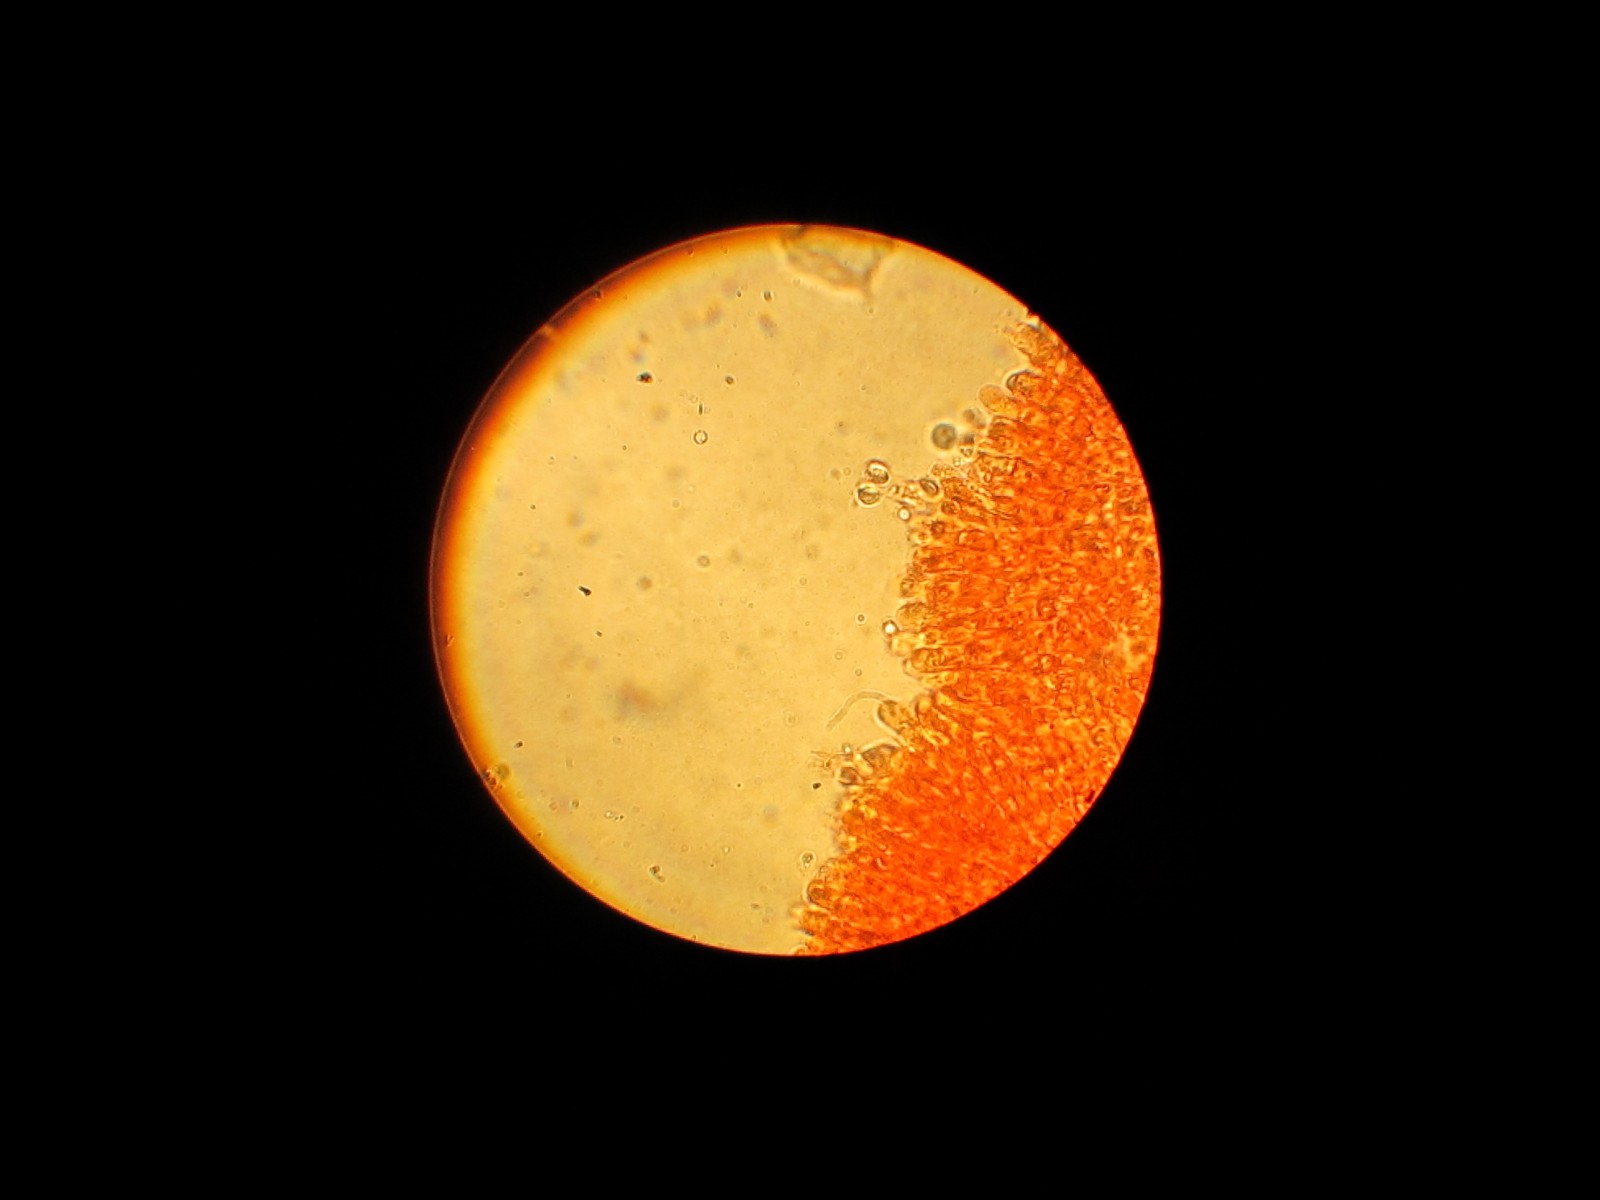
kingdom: Fungi
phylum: Basidiomycota
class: Agaricomycetes
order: Agaricales
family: Tricholomataceae
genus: Tricholoma
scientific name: Tricholoma terreum
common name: jordfarvet ridderhat
